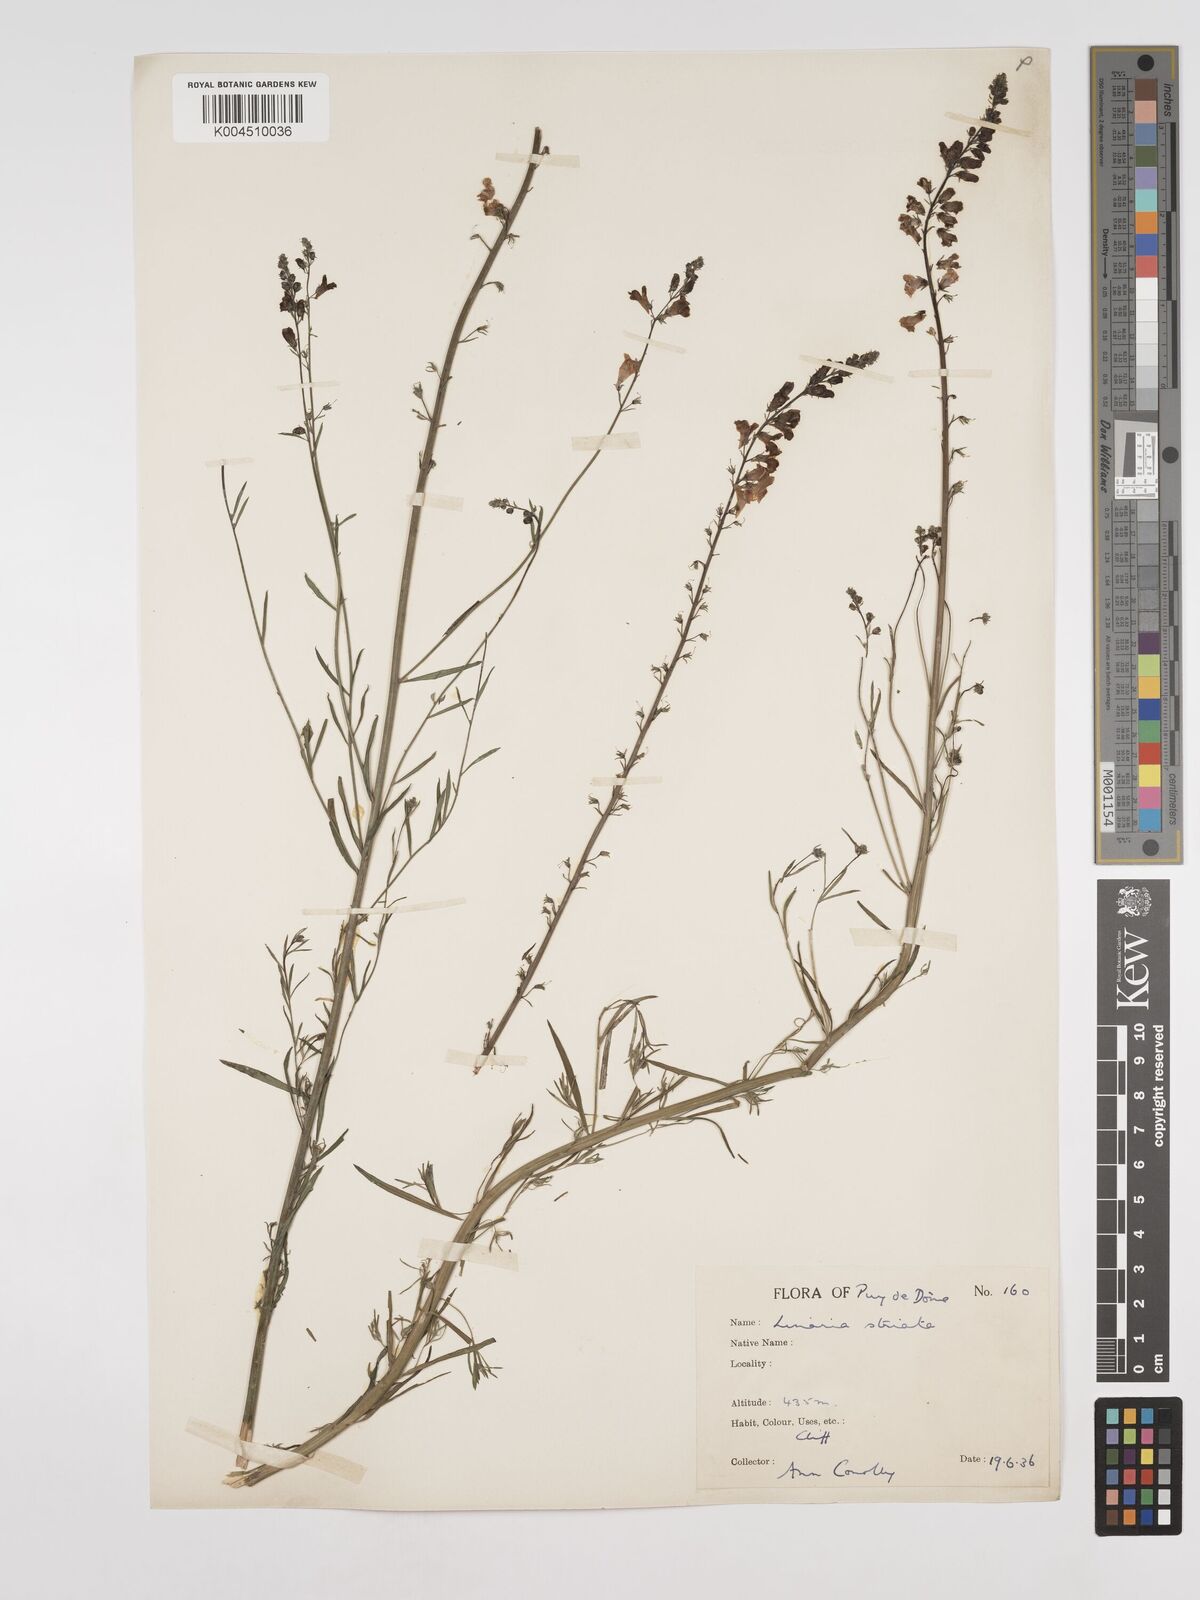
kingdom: Plantae
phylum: Tracheophyta
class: Magnoliopsida
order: Lamiales
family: Plantaginaceae
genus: Linaria
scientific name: Linaria repens
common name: Pale toadflax
